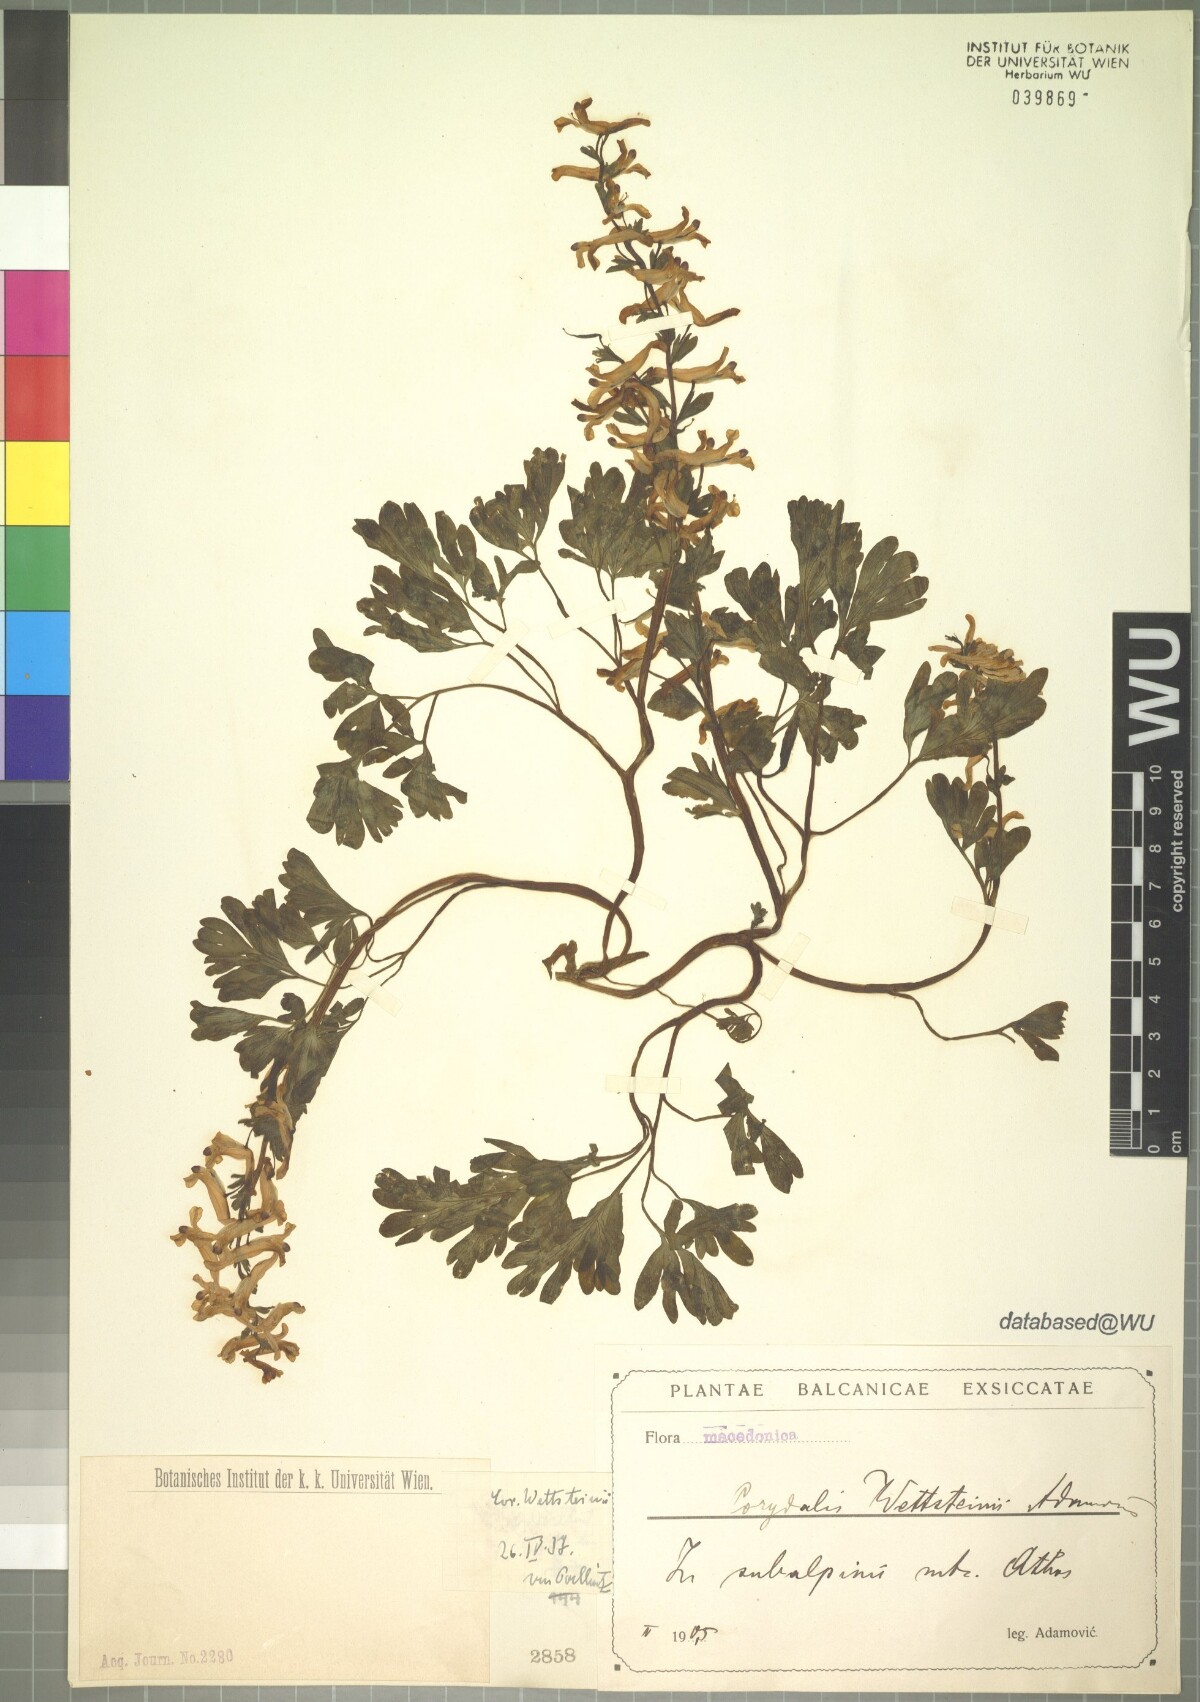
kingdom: Plantae
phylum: Tracheophyta
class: Magnoliopsida
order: Ranunculales
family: Papaveraceae
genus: Corydalis
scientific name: Corydalis integra
